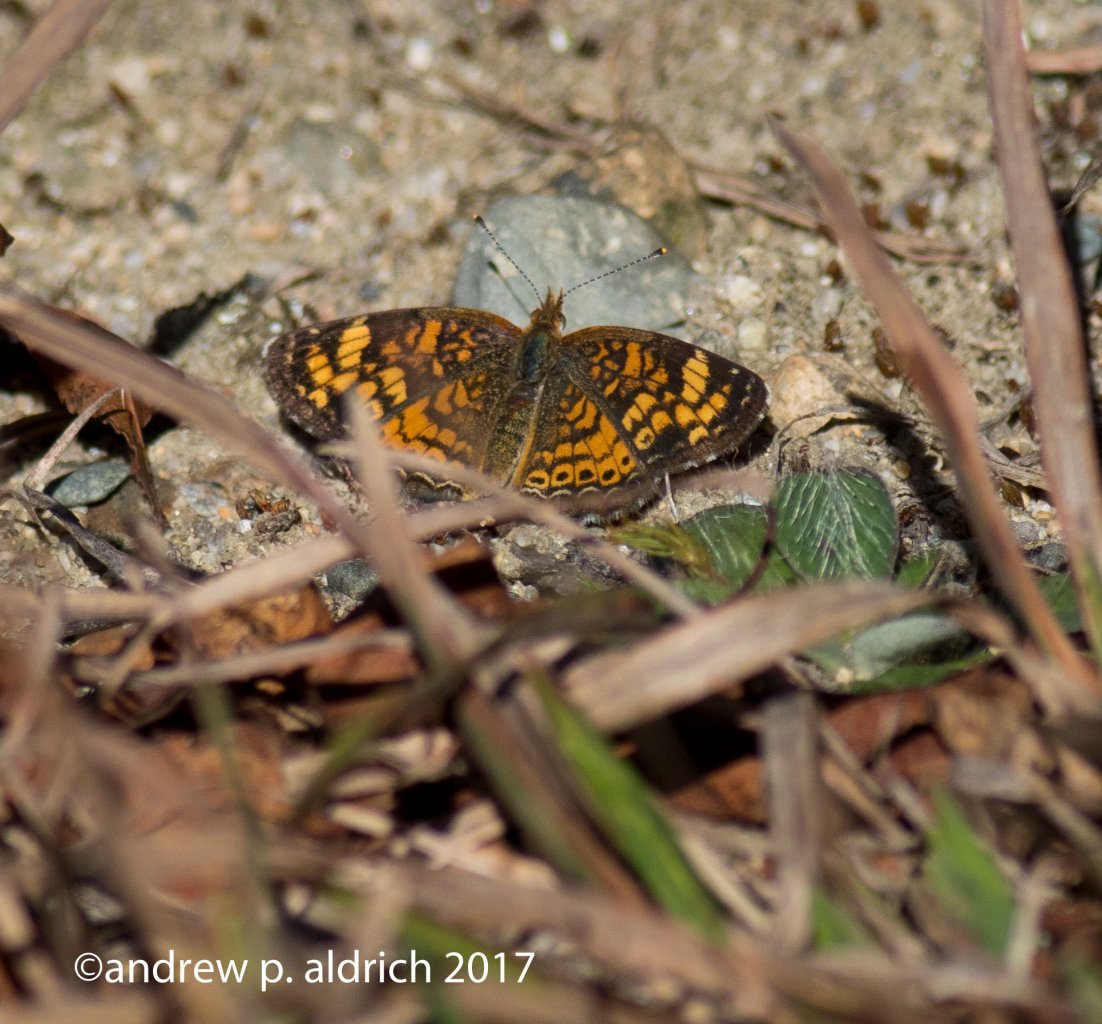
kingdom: Animalia
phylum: Arthropoda
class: Insecta
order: Lepidoptera
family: Nymphalidae
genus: Phyciodes
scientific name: Phyciodes
